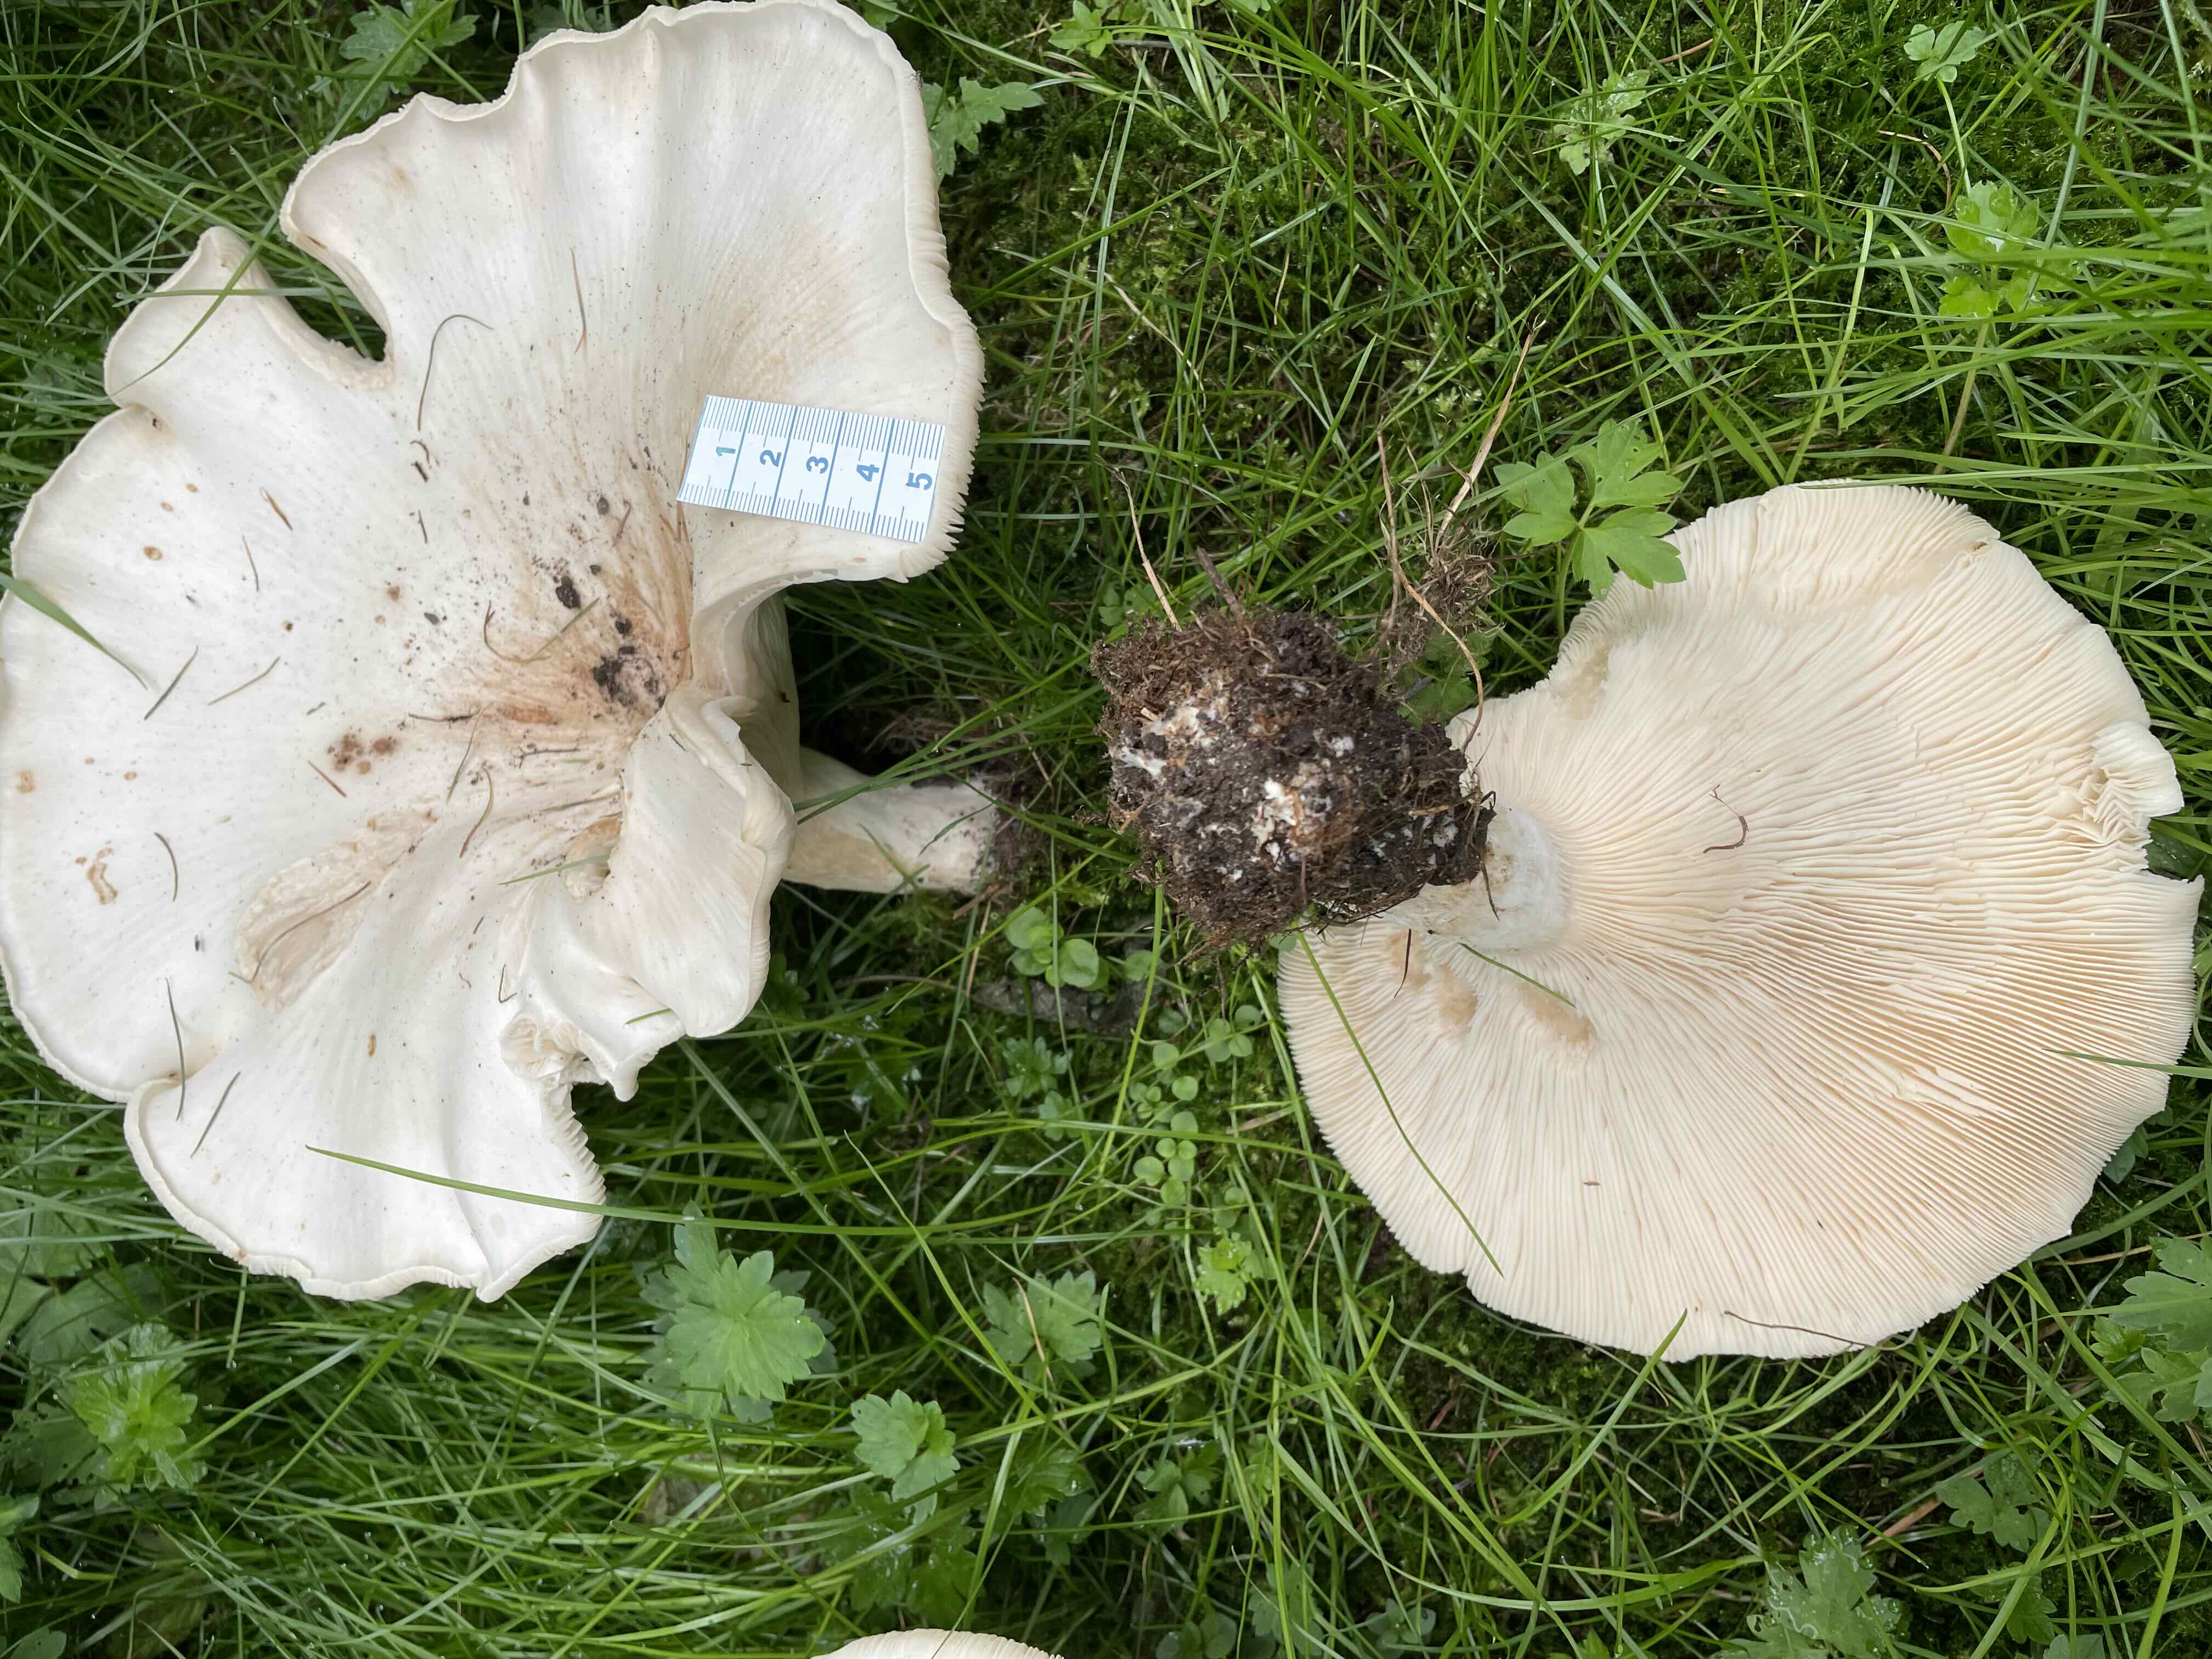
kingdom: Fungi
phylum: Basidiomycota
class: Agaricomycetes
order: Agaricales
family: Tricholomataceae
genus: Aspropaxillus
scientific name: Aspropaxillus giganteus
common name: kæmpe-tragtridderhat
